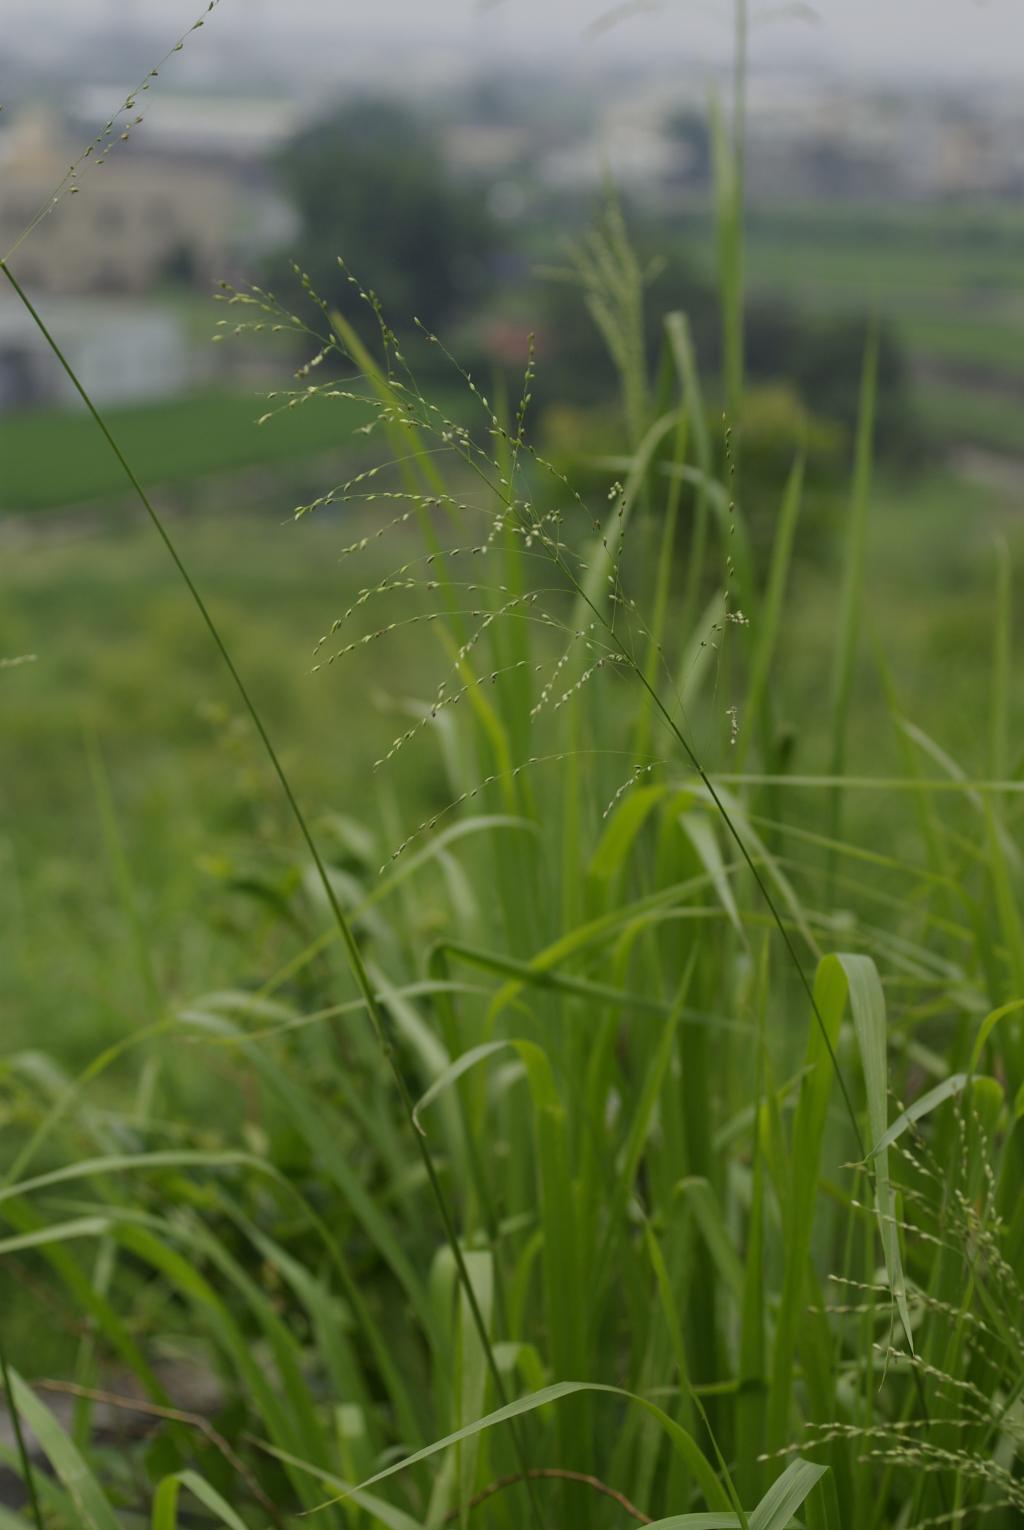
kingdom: Plantae
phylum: Tracheophyta
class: Liliopsida
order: Poales
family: Poaceae
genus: Megathyrsus
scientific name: Megathyrsus maximus
